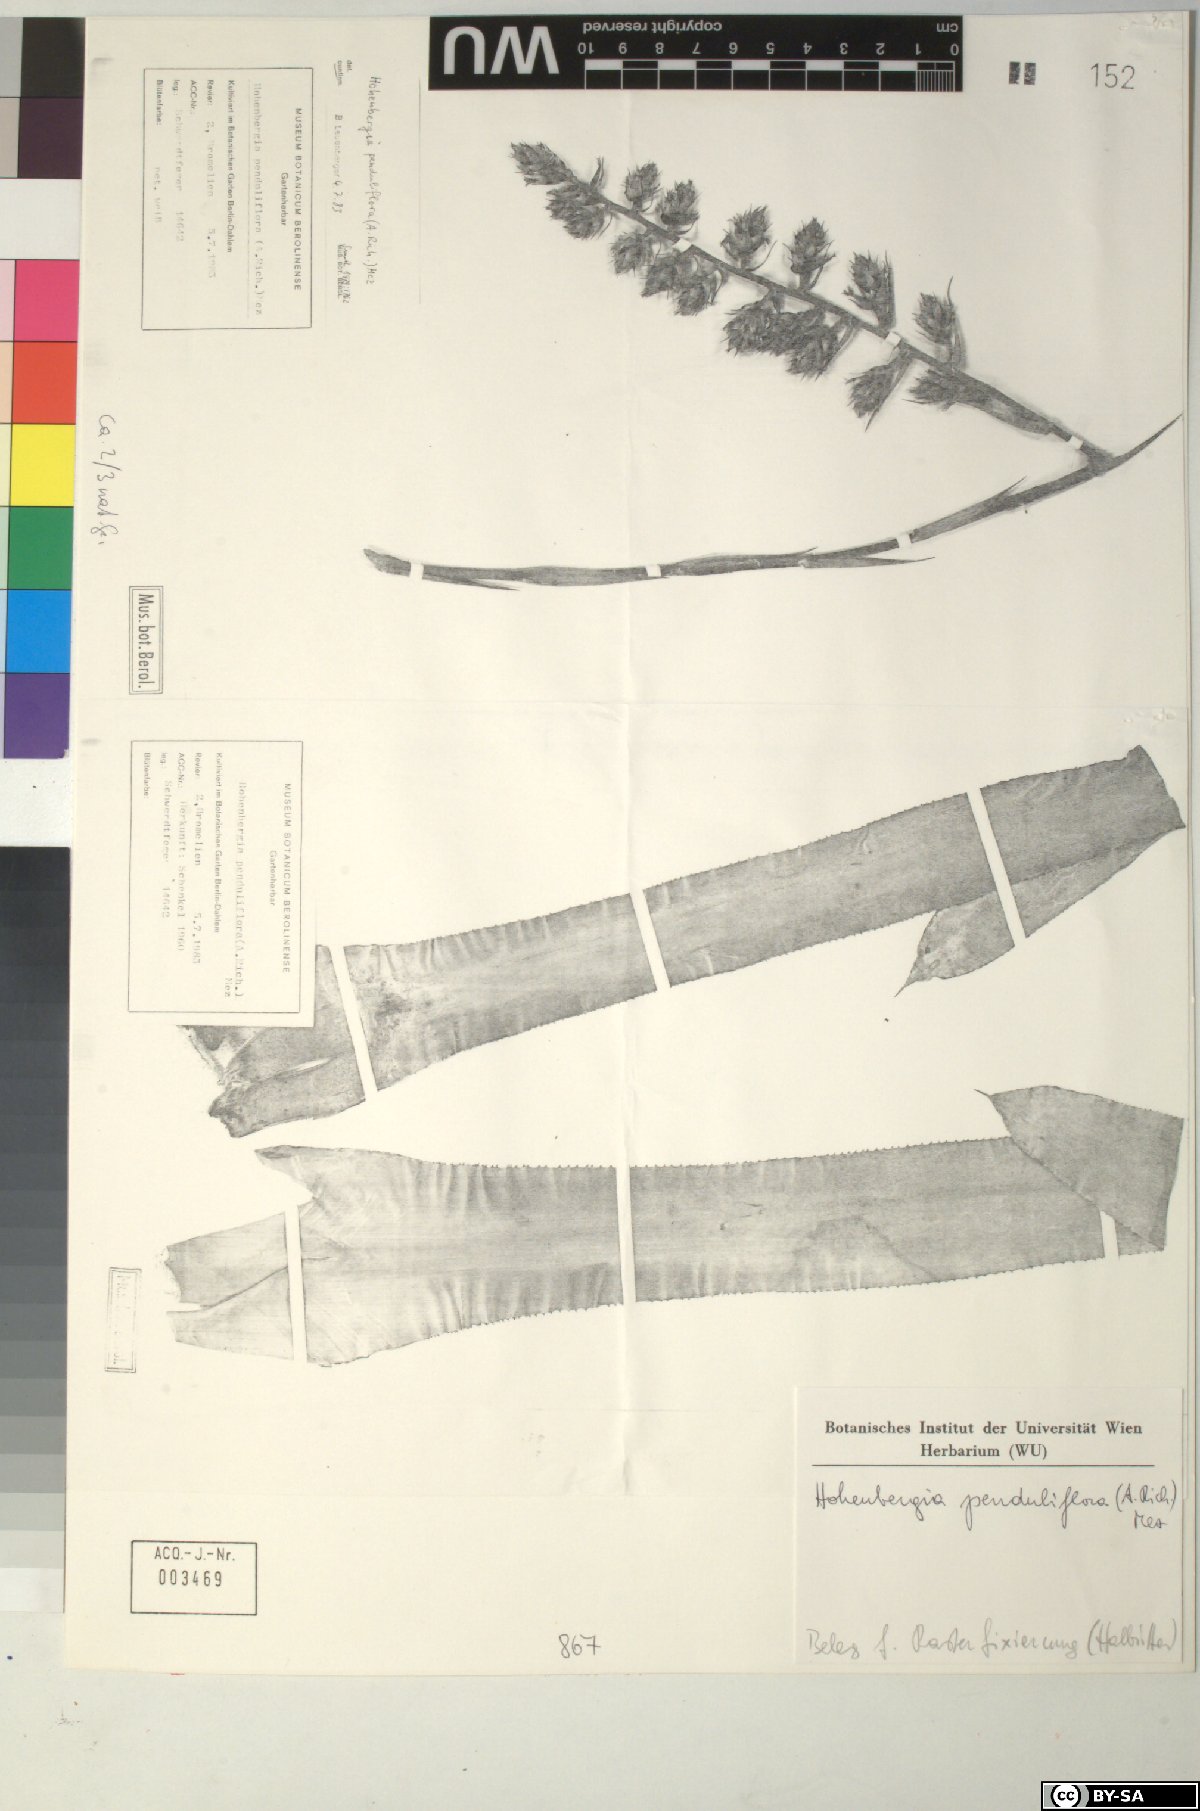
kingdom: Plantae
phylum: Tracheophyta
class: Liliopsida
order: Poales
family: Bromeliaceae
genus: Hohenbergia
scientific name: Hohenbergia
